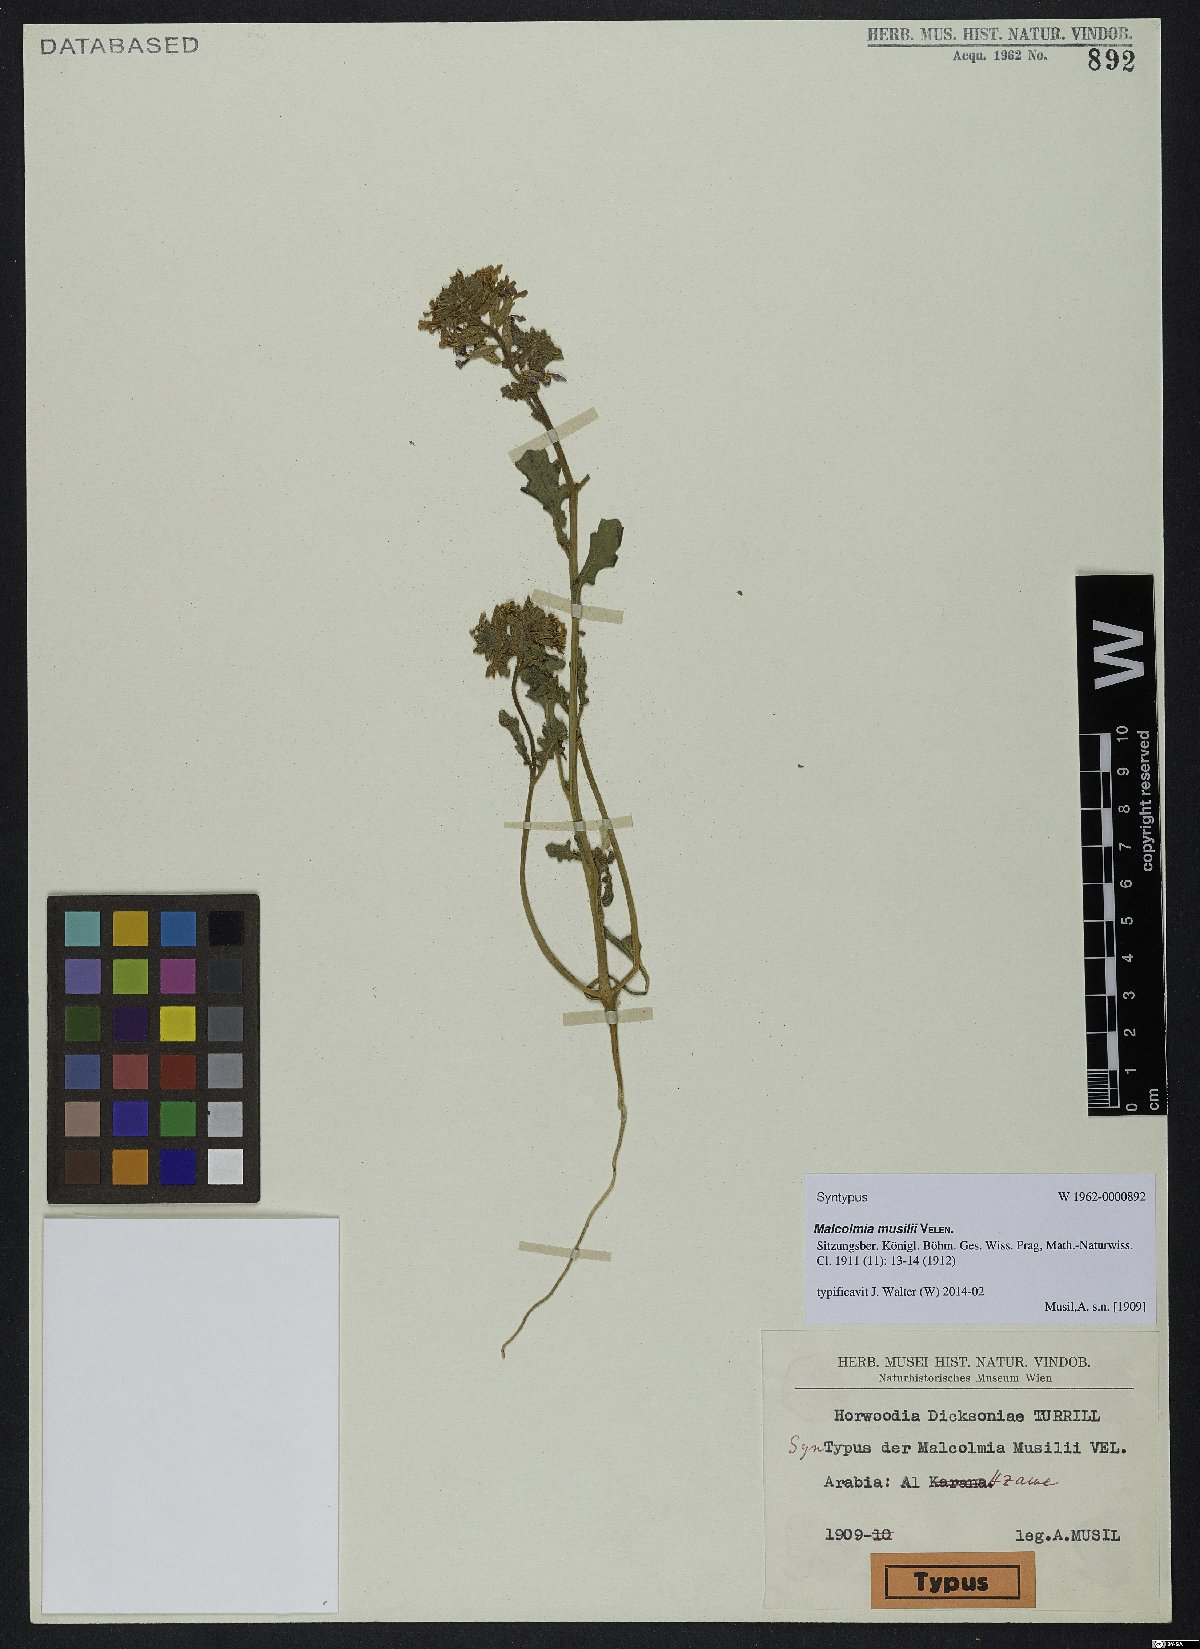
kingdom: Plantae
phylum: Tracheophyta
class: Magnoliopsida
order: Brassicales
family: Brassicaceae
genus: Horwoodia
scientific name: Horwoodia dicksoniae
